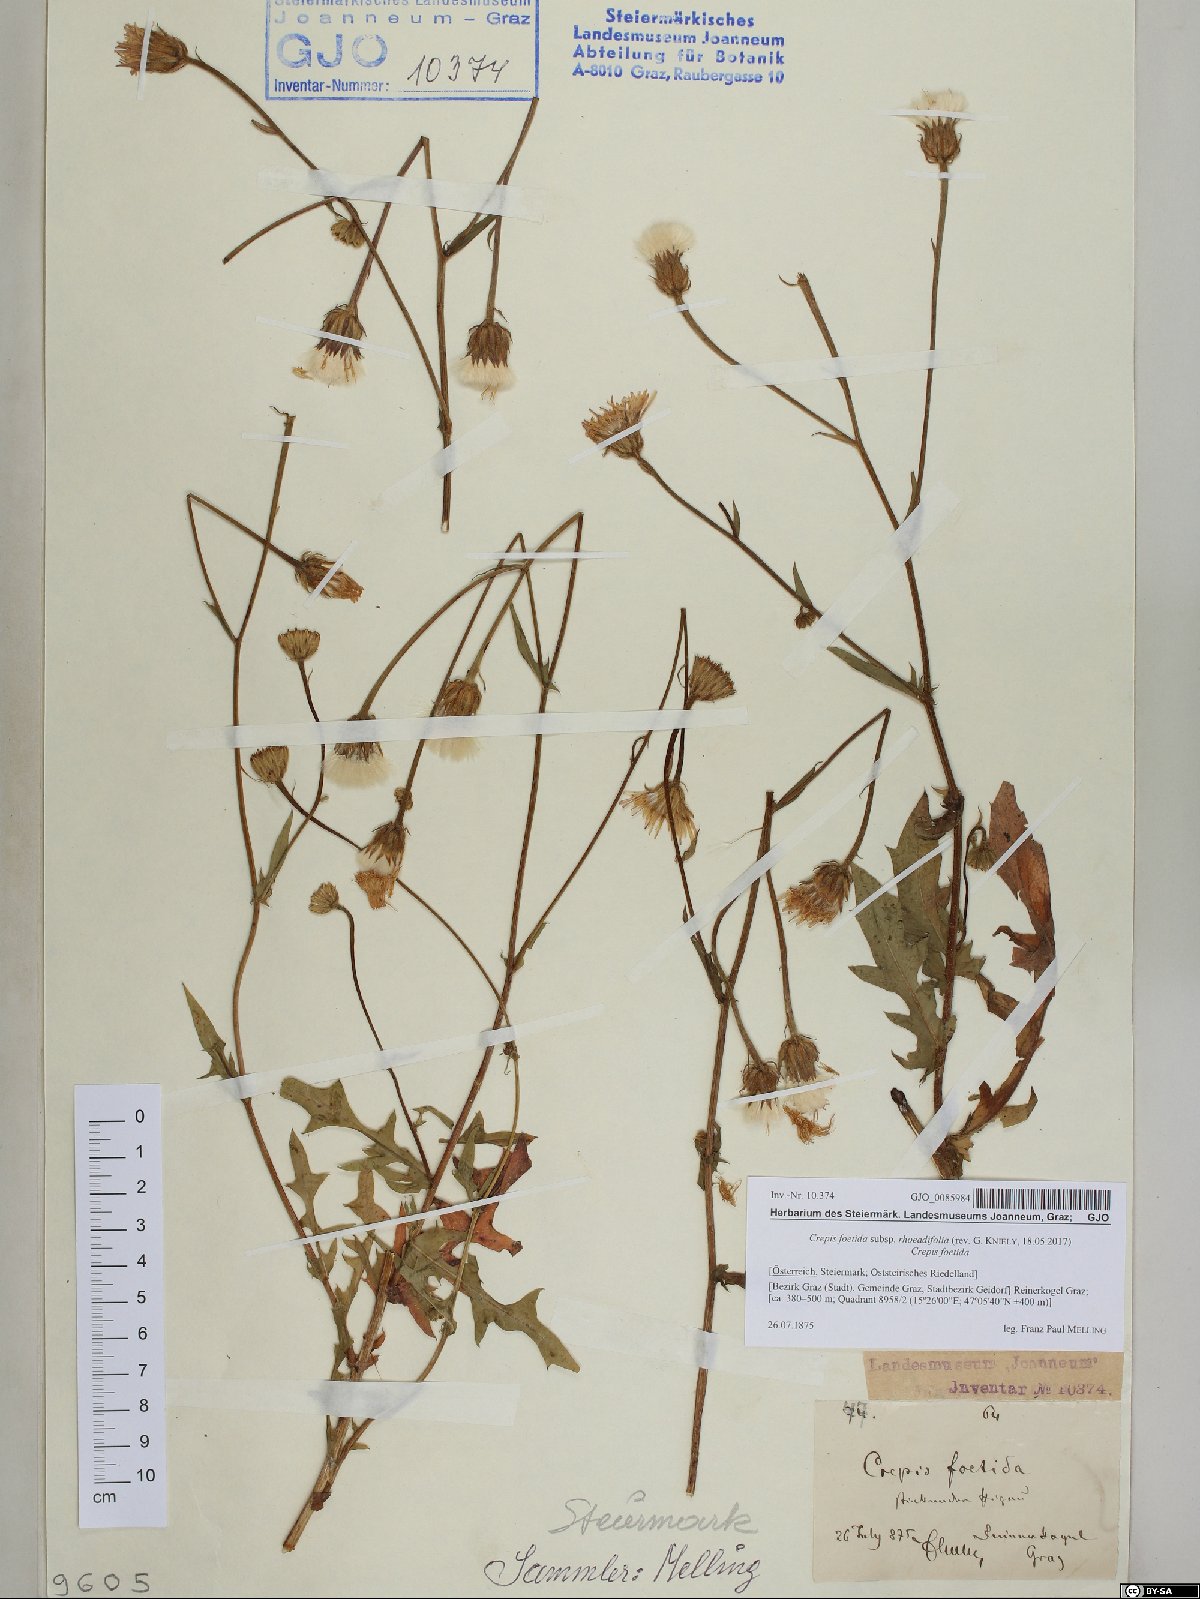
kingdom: Plantae
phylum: Tracheophyta
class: Magnoliopsida
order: Asterales
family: Asteraceae
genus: Crepis
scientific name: Crepis foetida
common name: Stinking hawk's-beard
